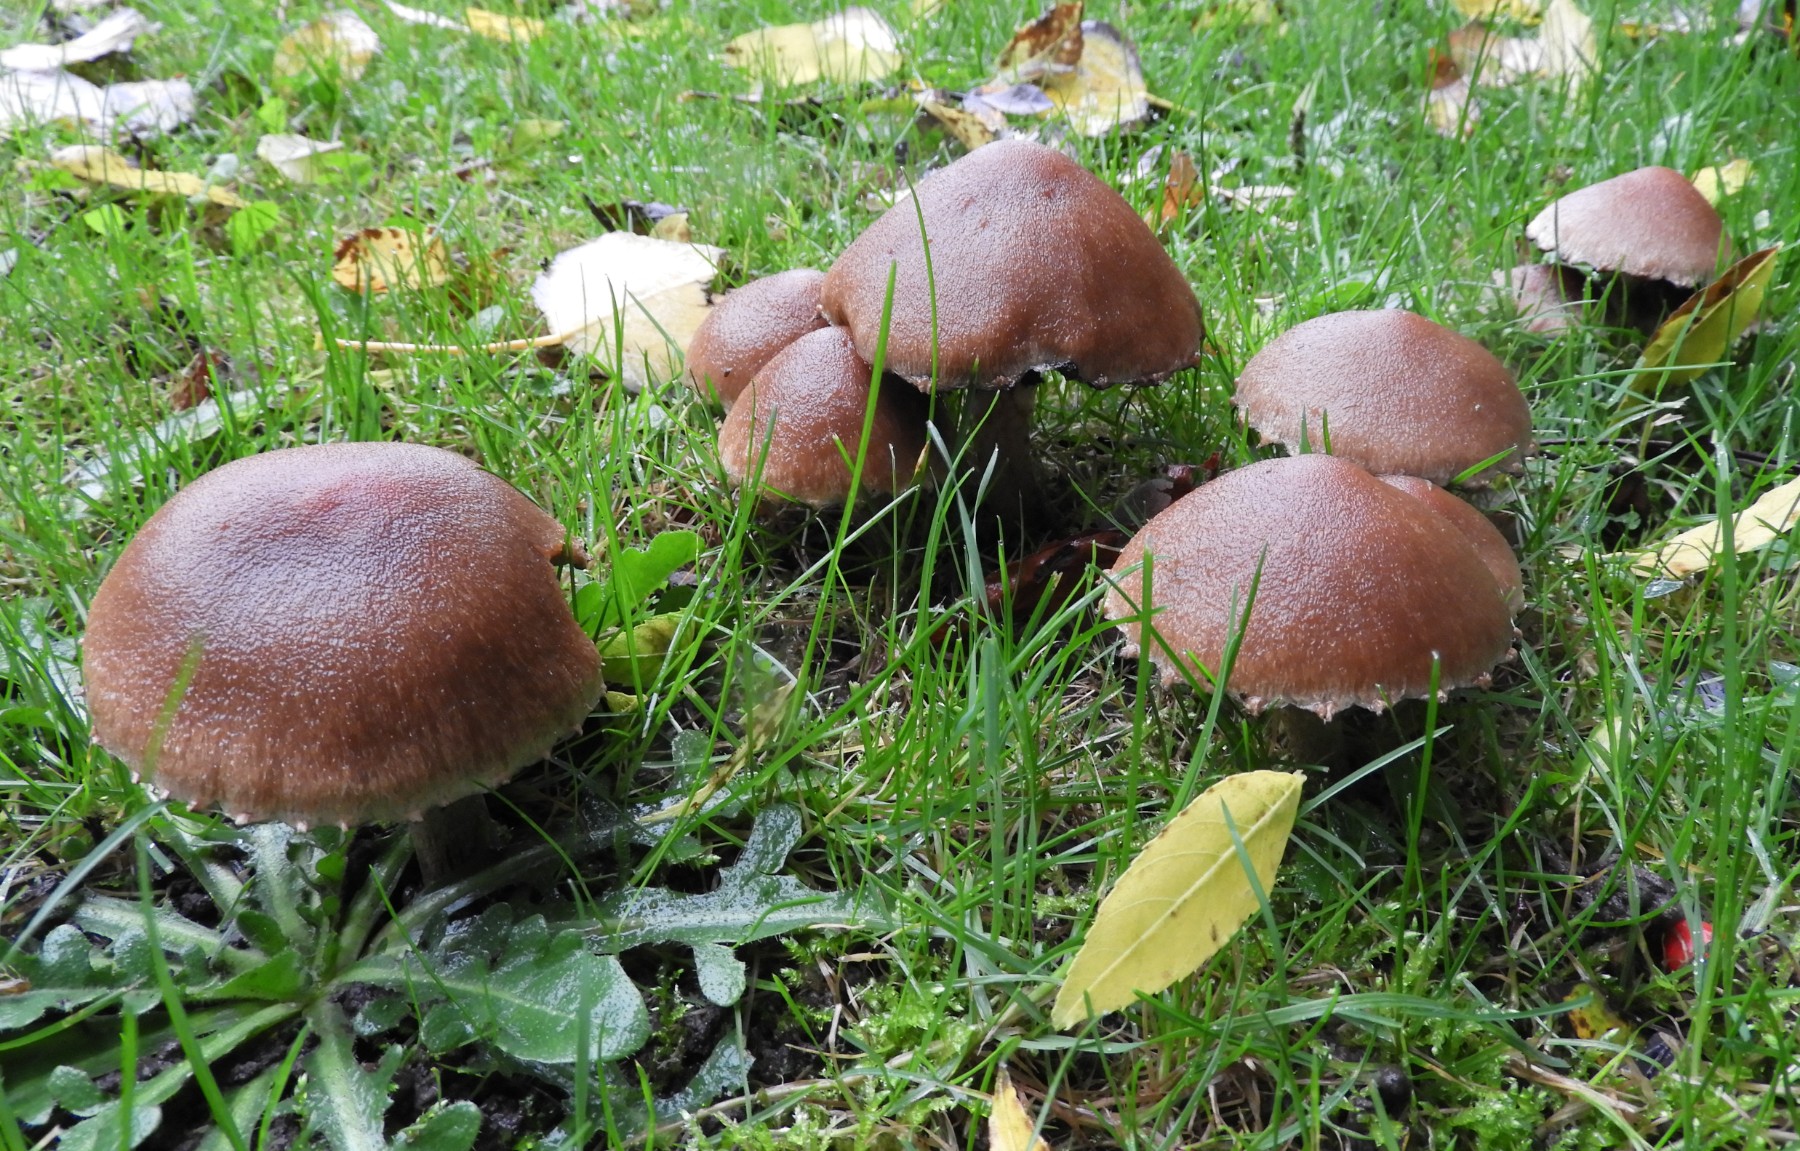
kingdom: Fungi
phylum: Basidiomycota
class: Agaricomycetes
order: Agaricales
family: Psathyrellaceae
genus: Lacrymaria
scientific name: Lacrymaria lacrymabunda
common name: grædende mørkhat
